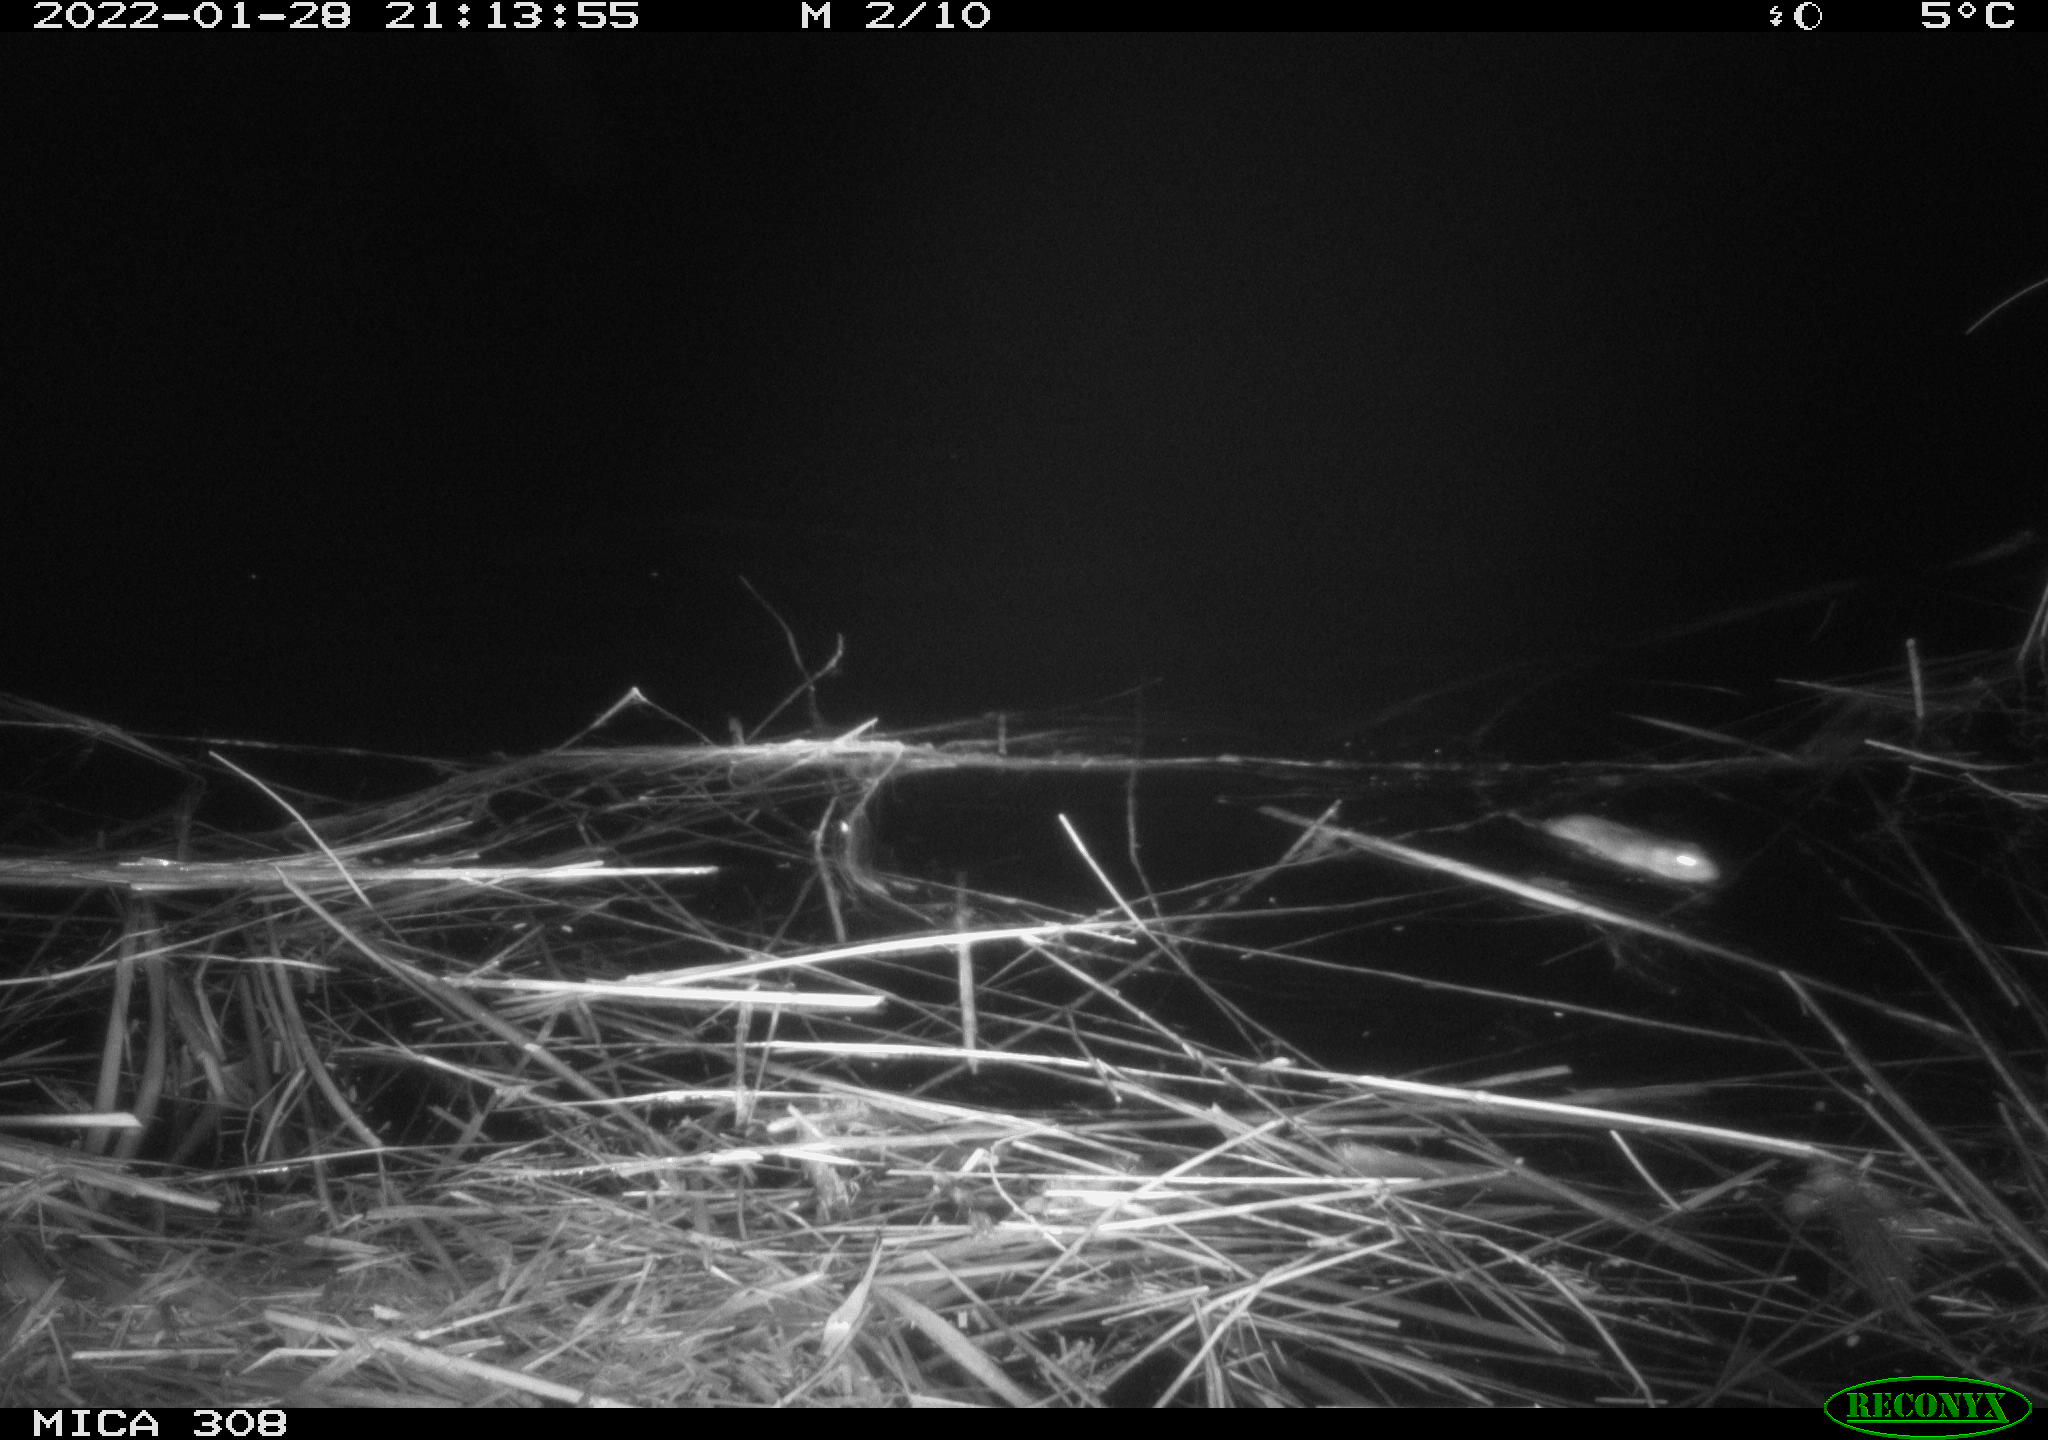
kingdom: Animalia
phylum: Chordata
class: Mammalia
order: Rodentia
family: Muridae
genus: Rattus
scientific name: Rattus norvegicus
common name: Brown rat
